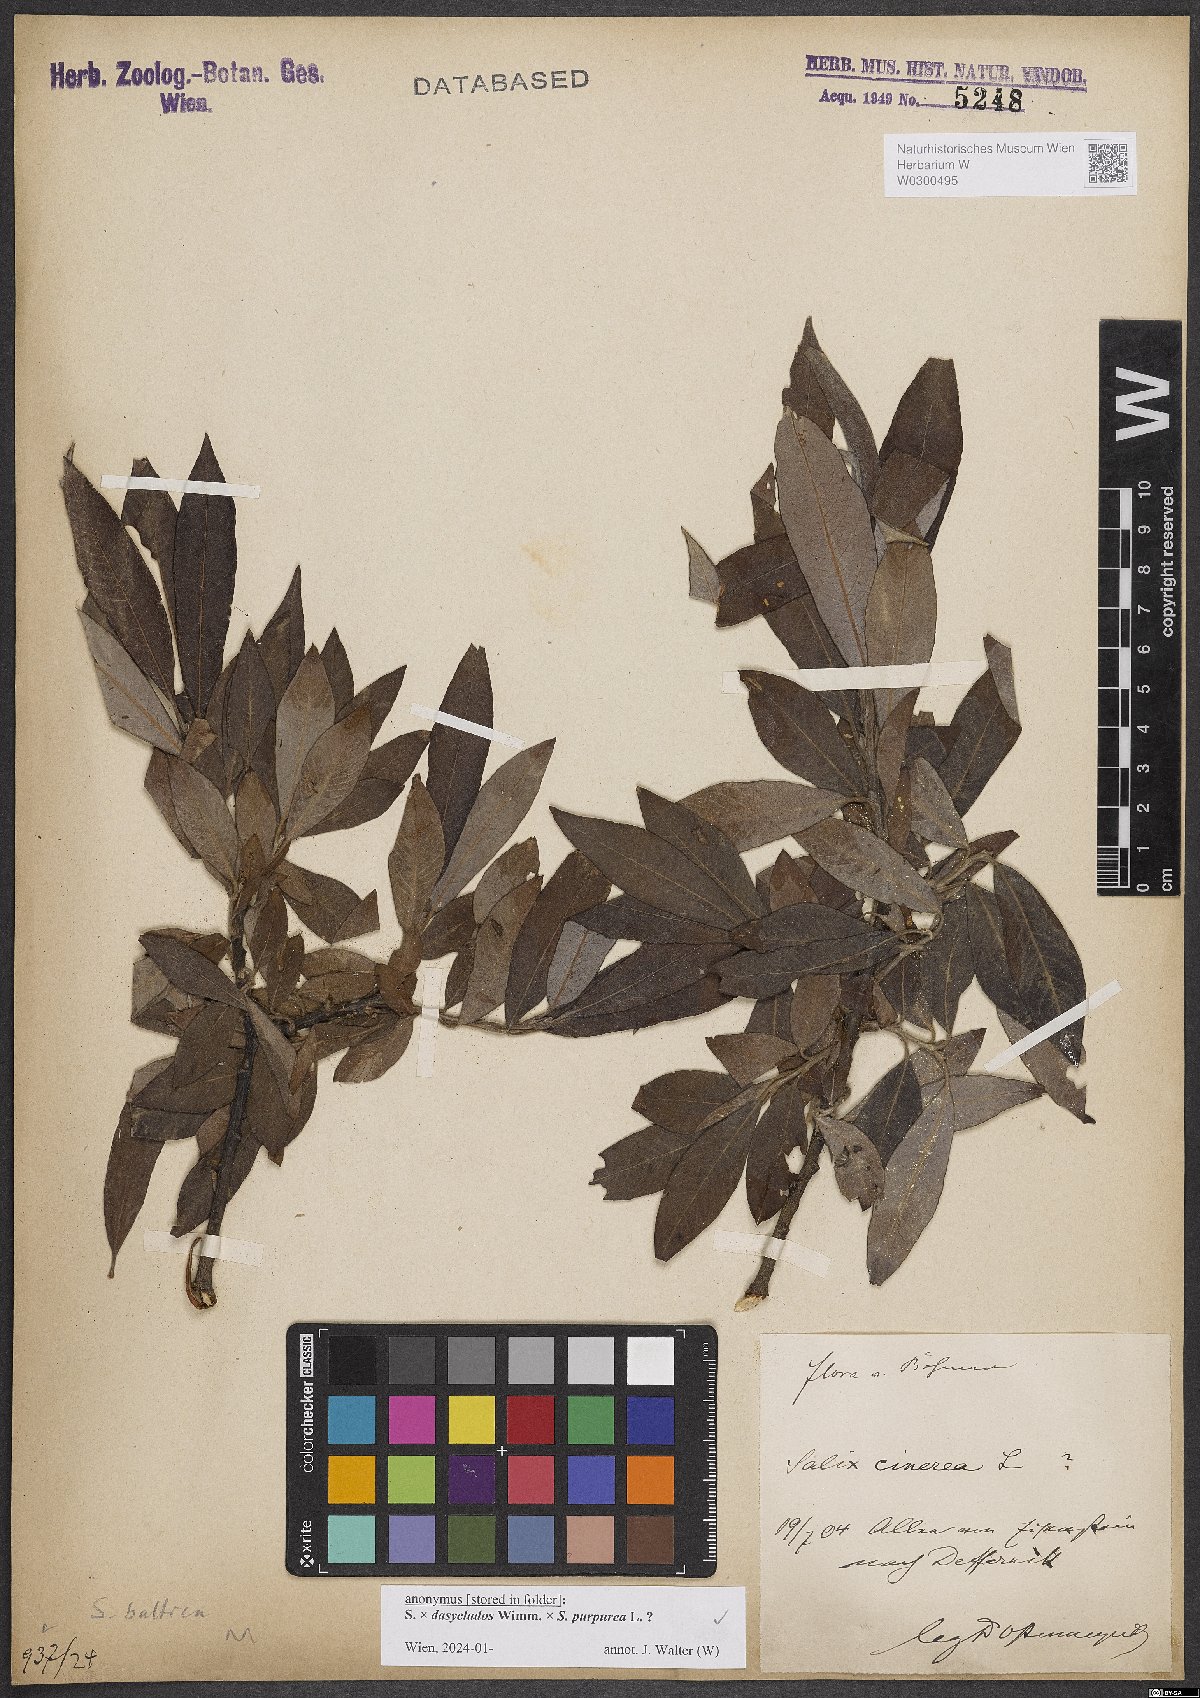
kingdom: Plantae
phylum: Tracheophyta
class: Magnoliopsida
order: Malpighiales
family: Salicaceae
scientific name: Salicaceae
